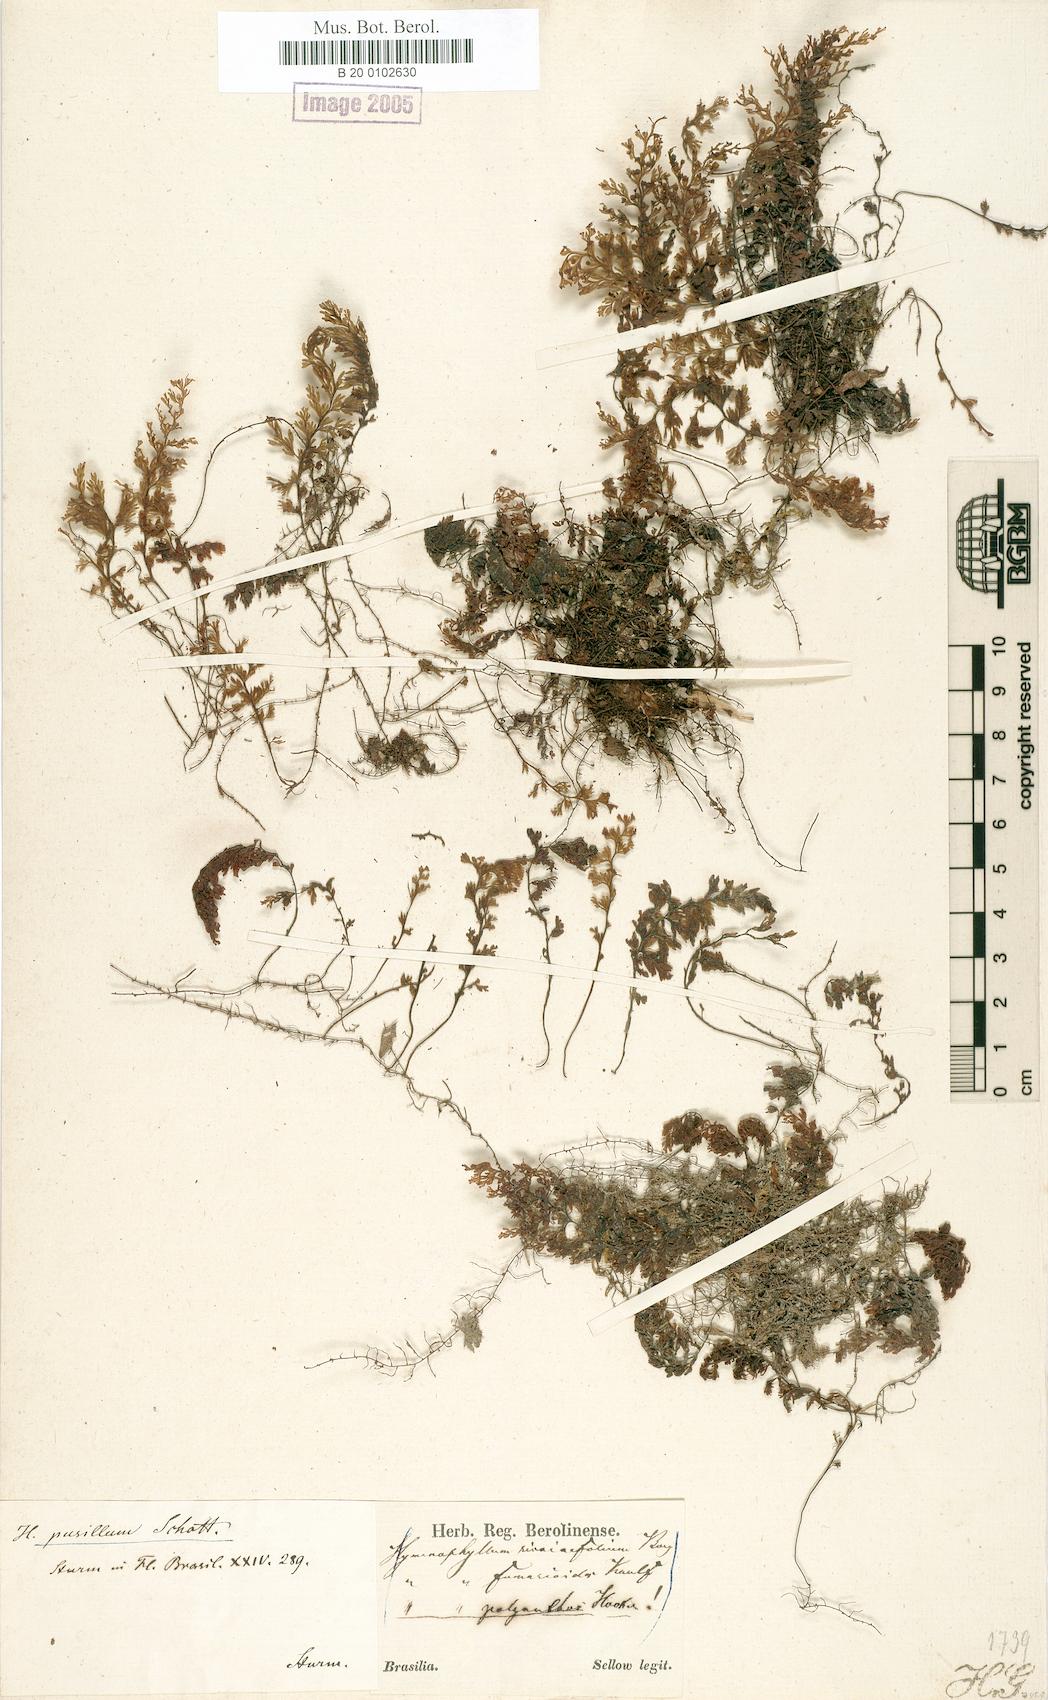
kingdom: Plantae
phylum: Tracheophyta
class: Polypodiopsida
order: Hymenophyllales
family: Hymenophyllaceae
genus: Hymenophyllum
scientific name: Hymenophyllum polyanthos
